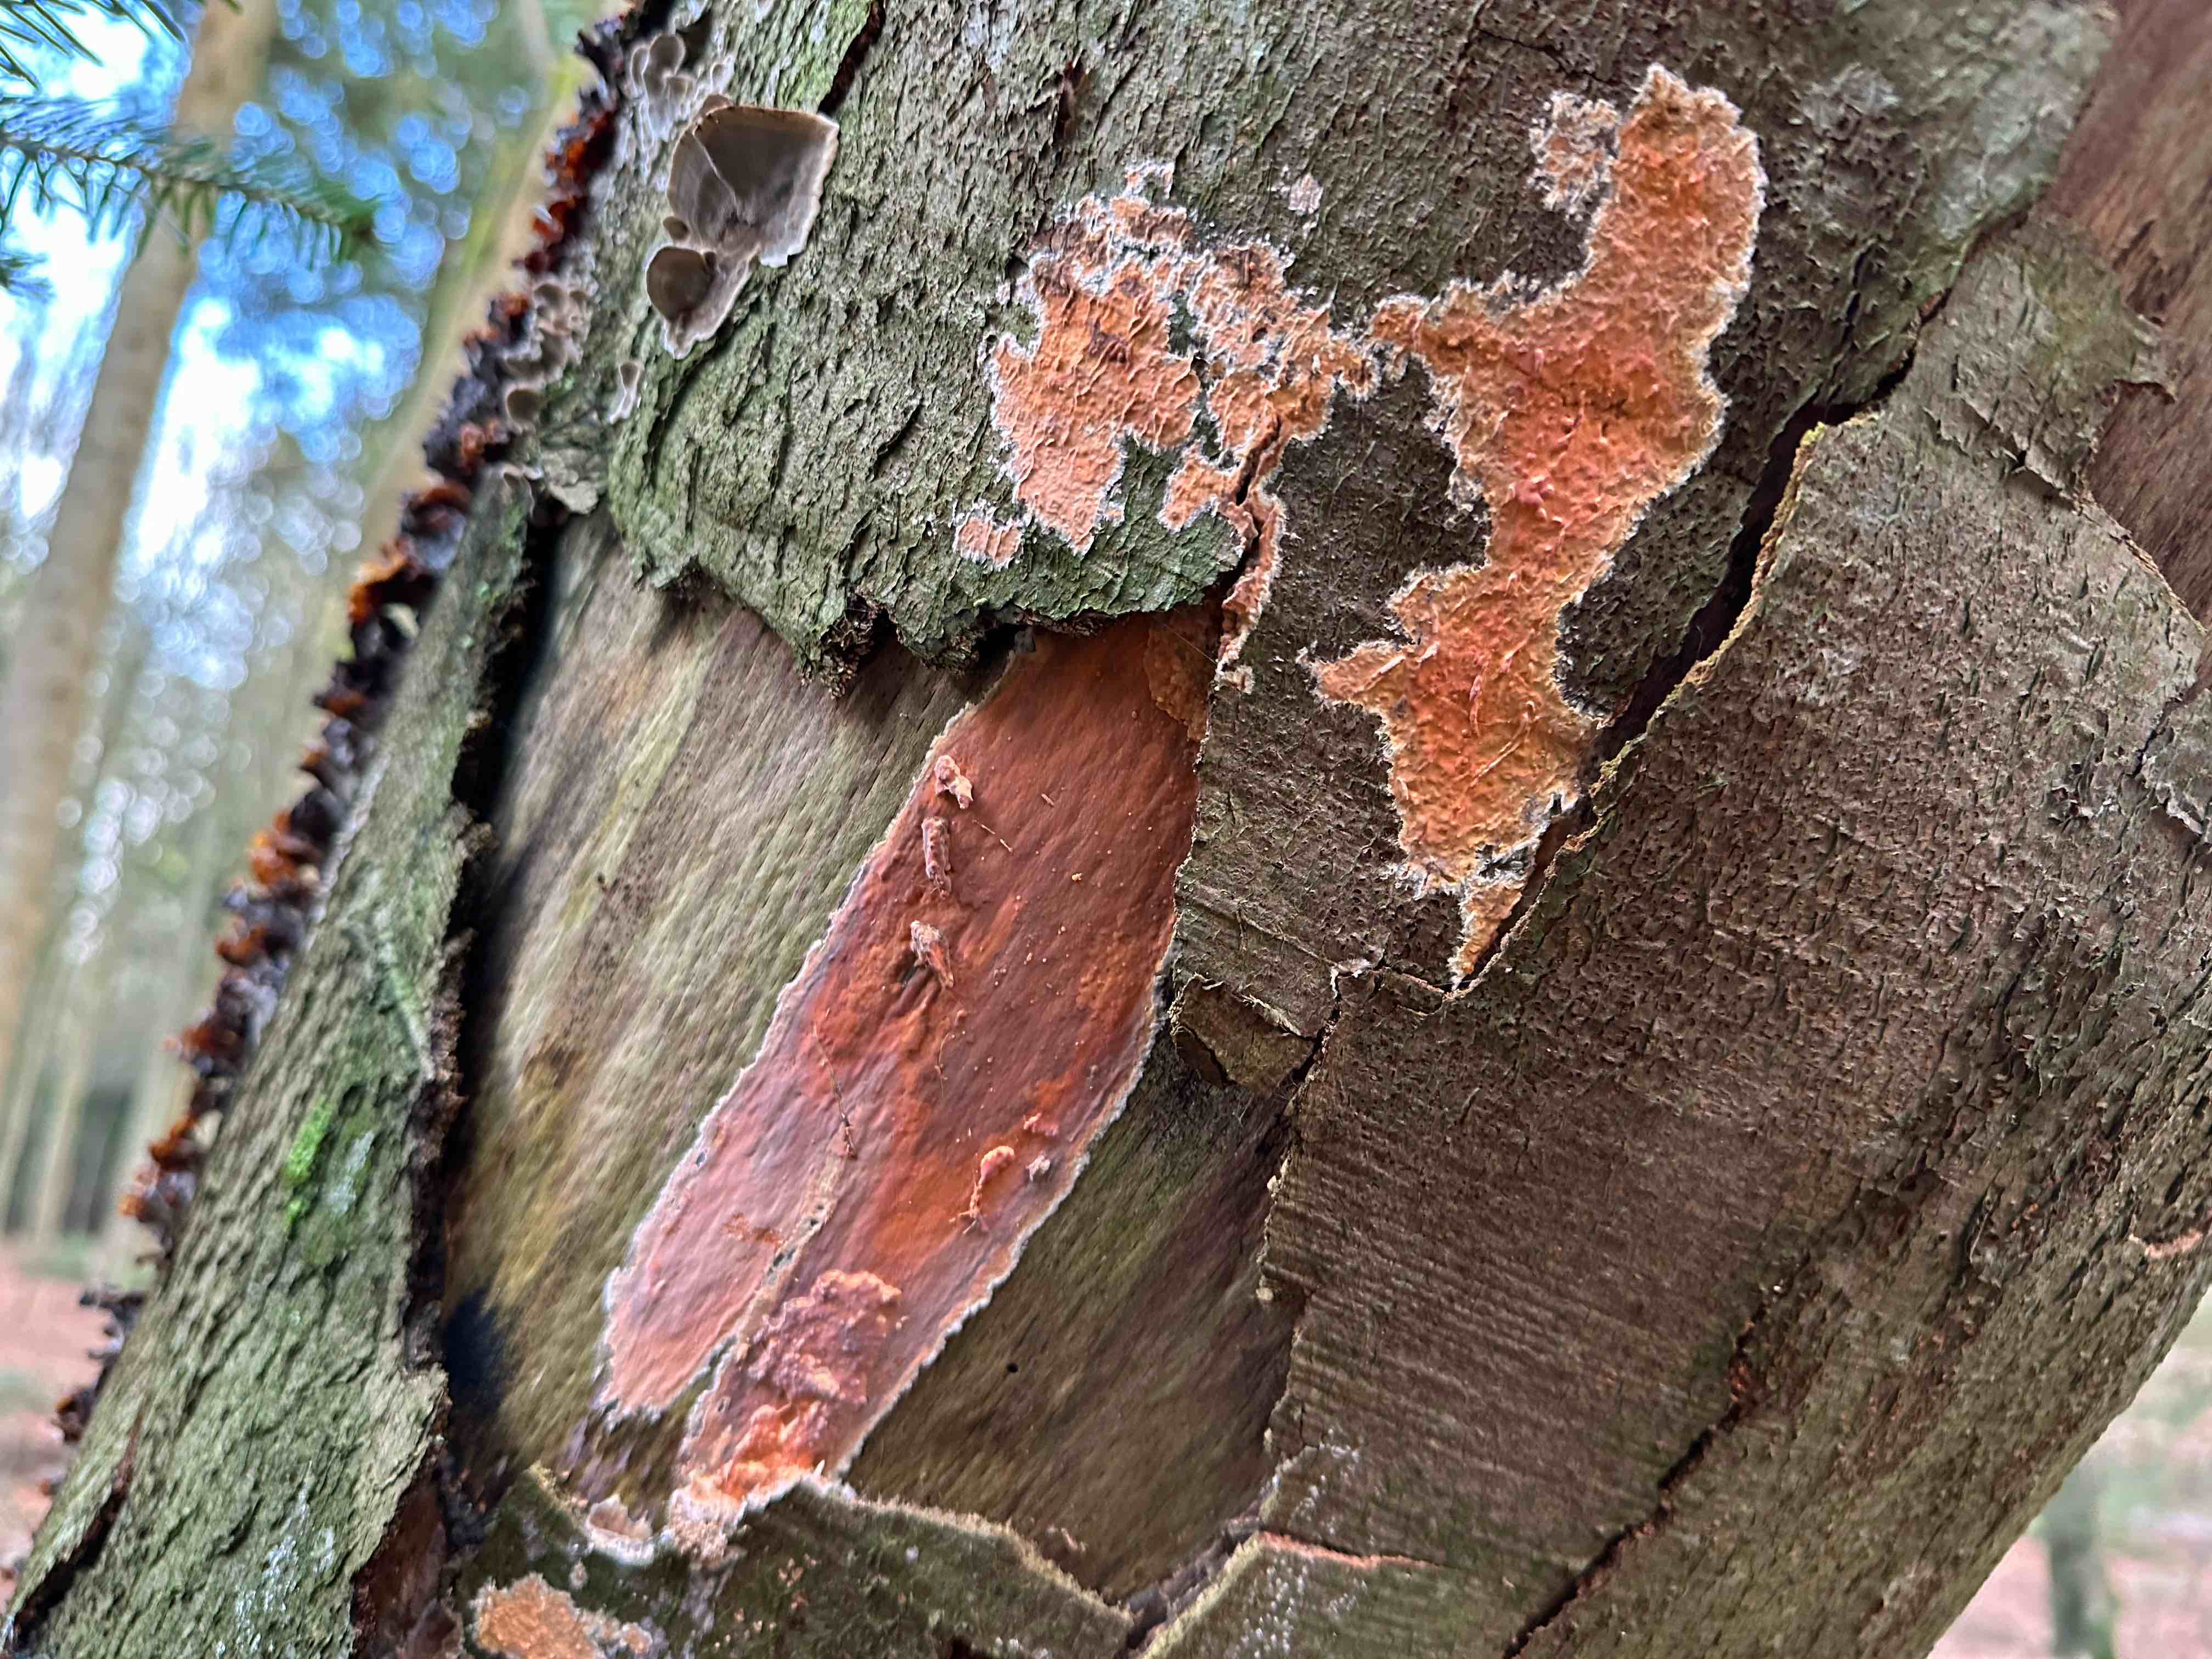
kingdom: Fungi
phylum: Basidiomycota
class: Agaricomycetes
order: Russulales
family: Peniophoraceae
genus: Peniophora
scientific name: Peniophora incarnata
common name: laksefarvet voksskind
